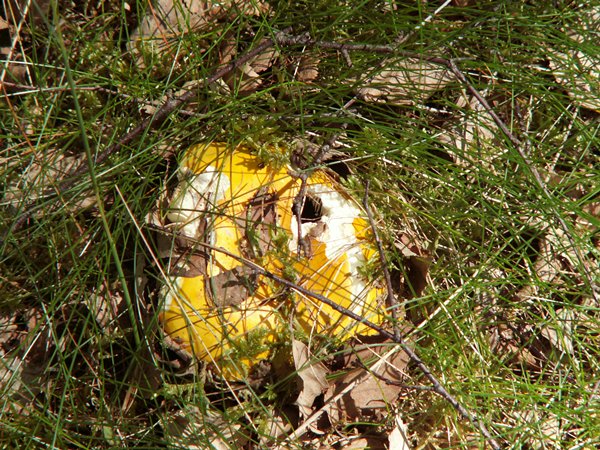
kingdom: Fungi
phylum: Basidiomycota
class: Agaricomycetes
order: Russulales
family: Russulaceae
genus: Russula
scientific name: Russula claroflava
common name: birke-skørhat
